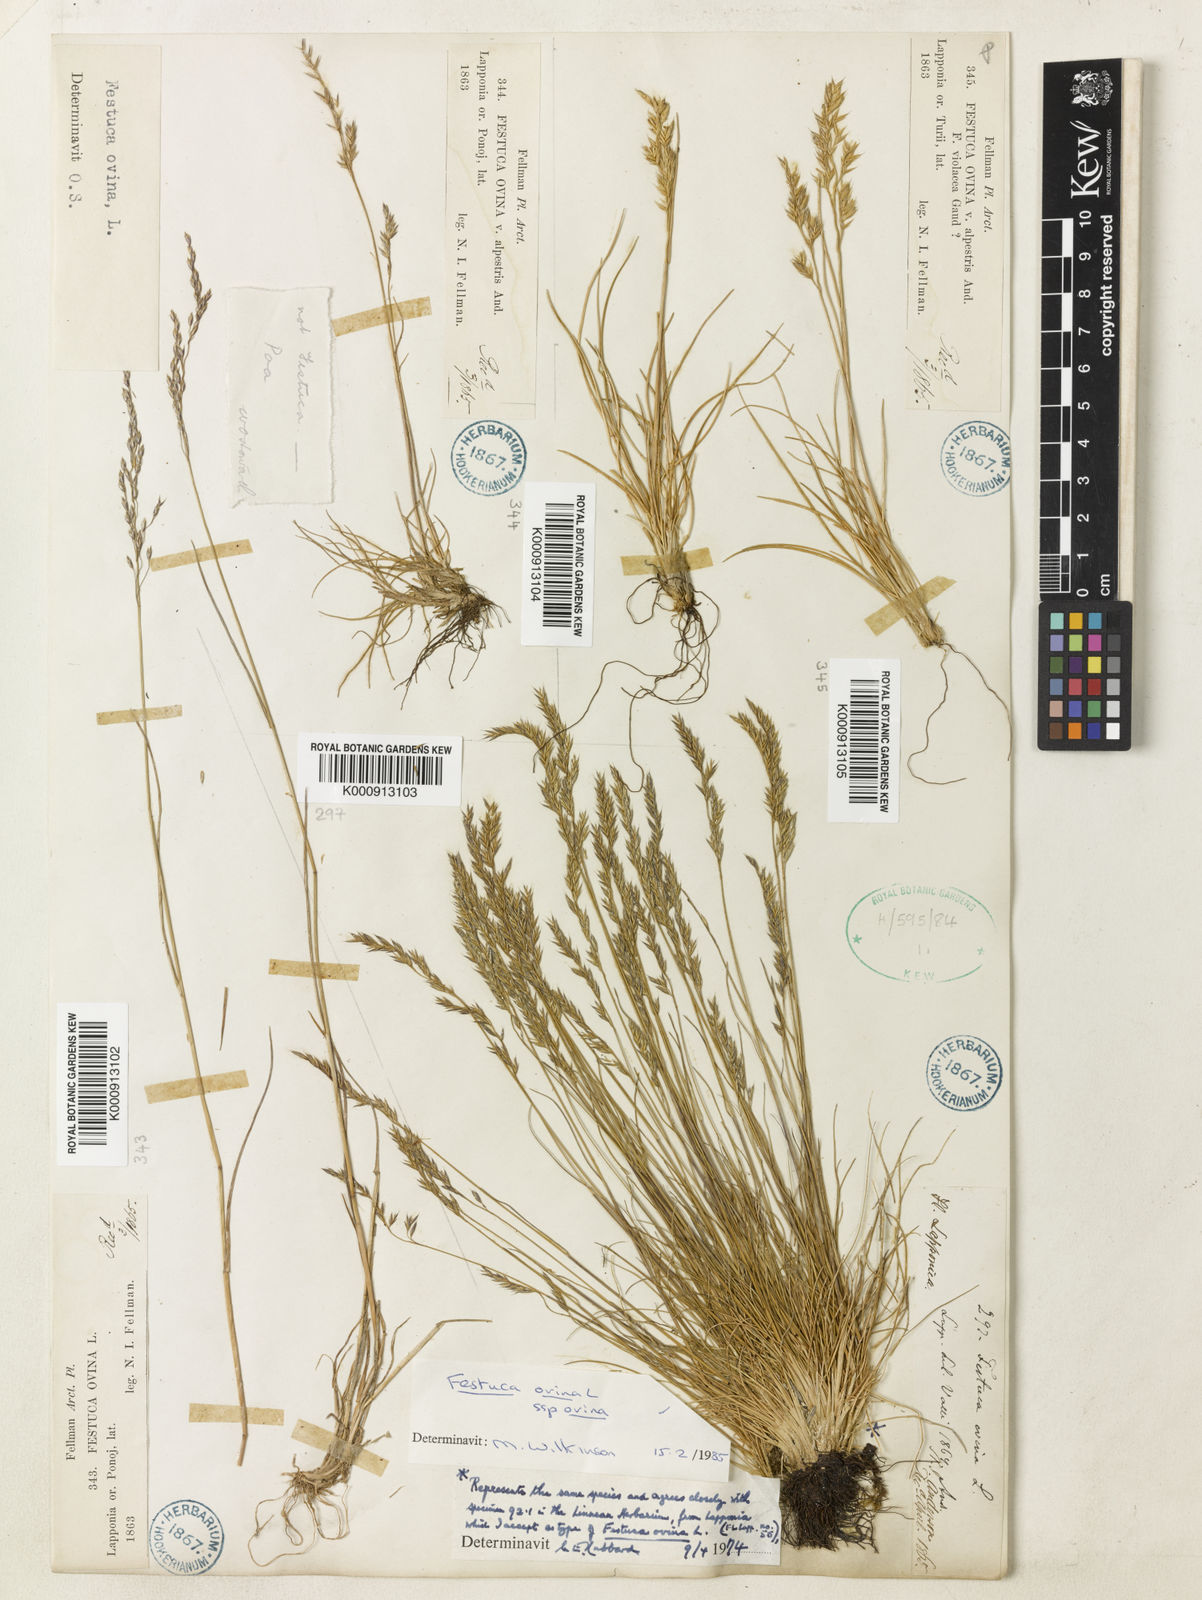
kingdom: Plantae
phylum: Tracheophyta
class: Liliopsida
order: Poales
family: Poaceae
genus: Festuca
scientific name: Festuca ovina
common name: Sheep fescue
